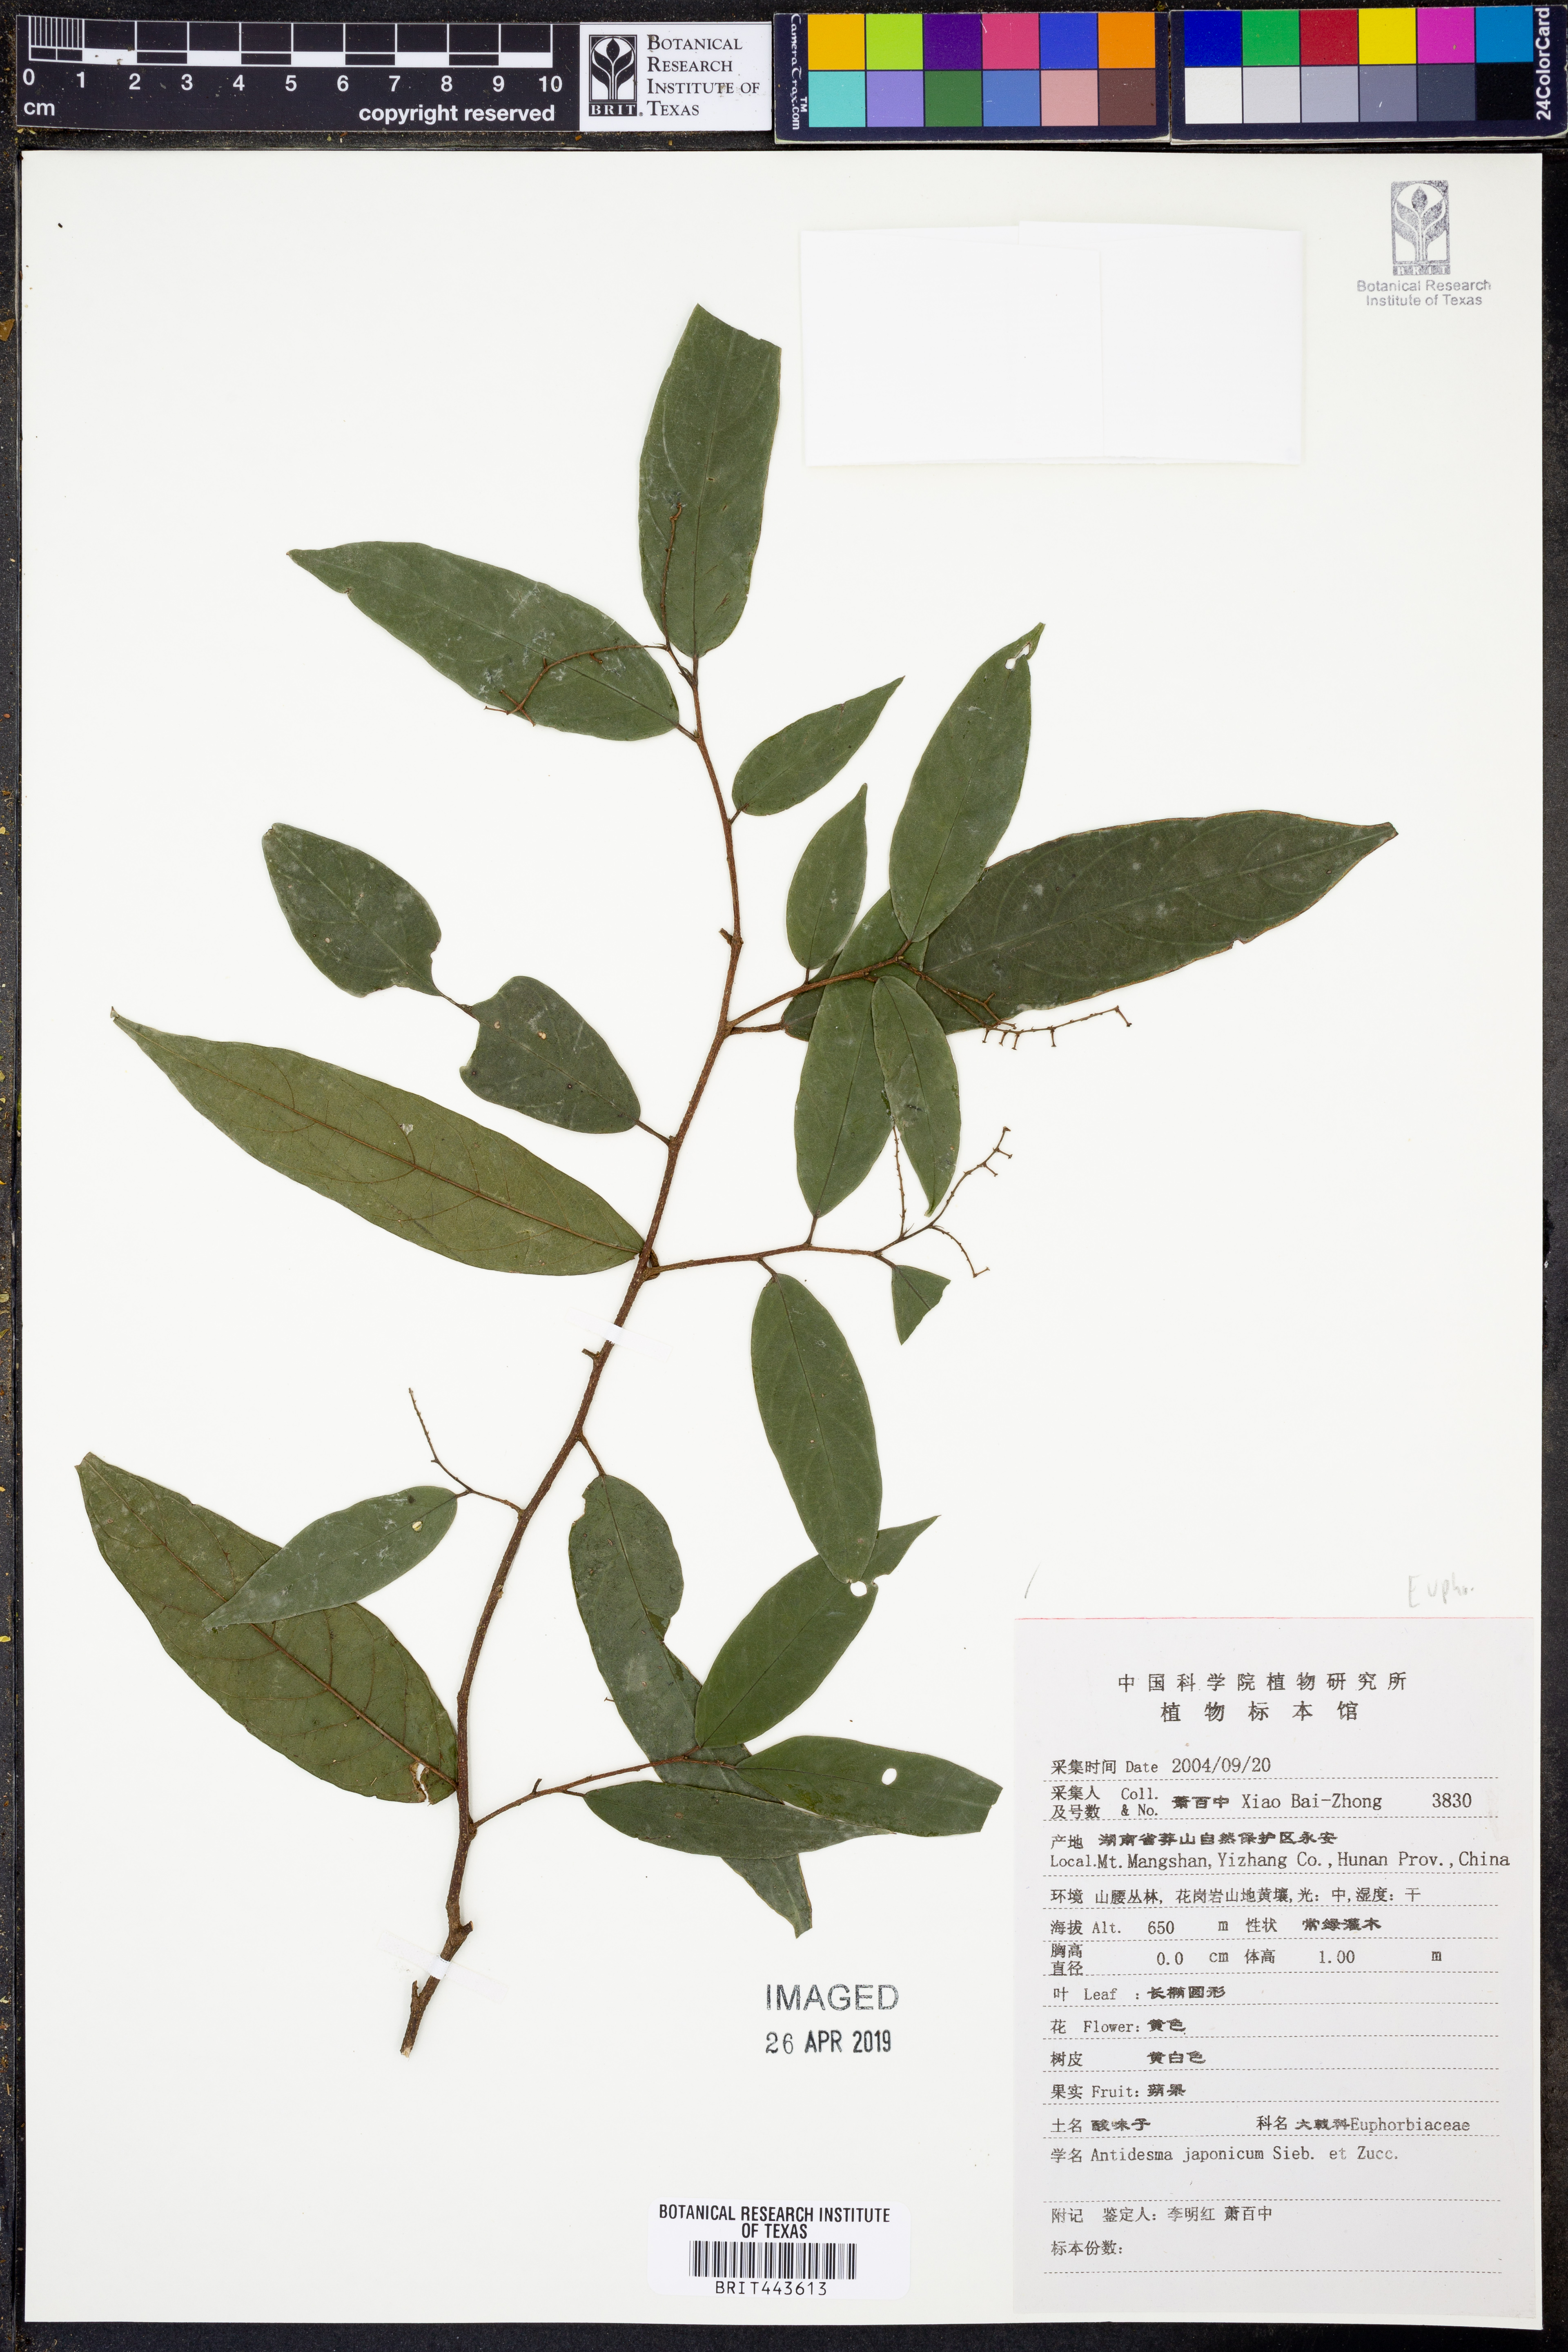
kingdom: Plantae
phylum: Tracheophyta
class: Magnoliopsida
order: Malpighiales
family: Phyllanthaceae
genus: Antidesma
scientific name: Antidesma japonicum
